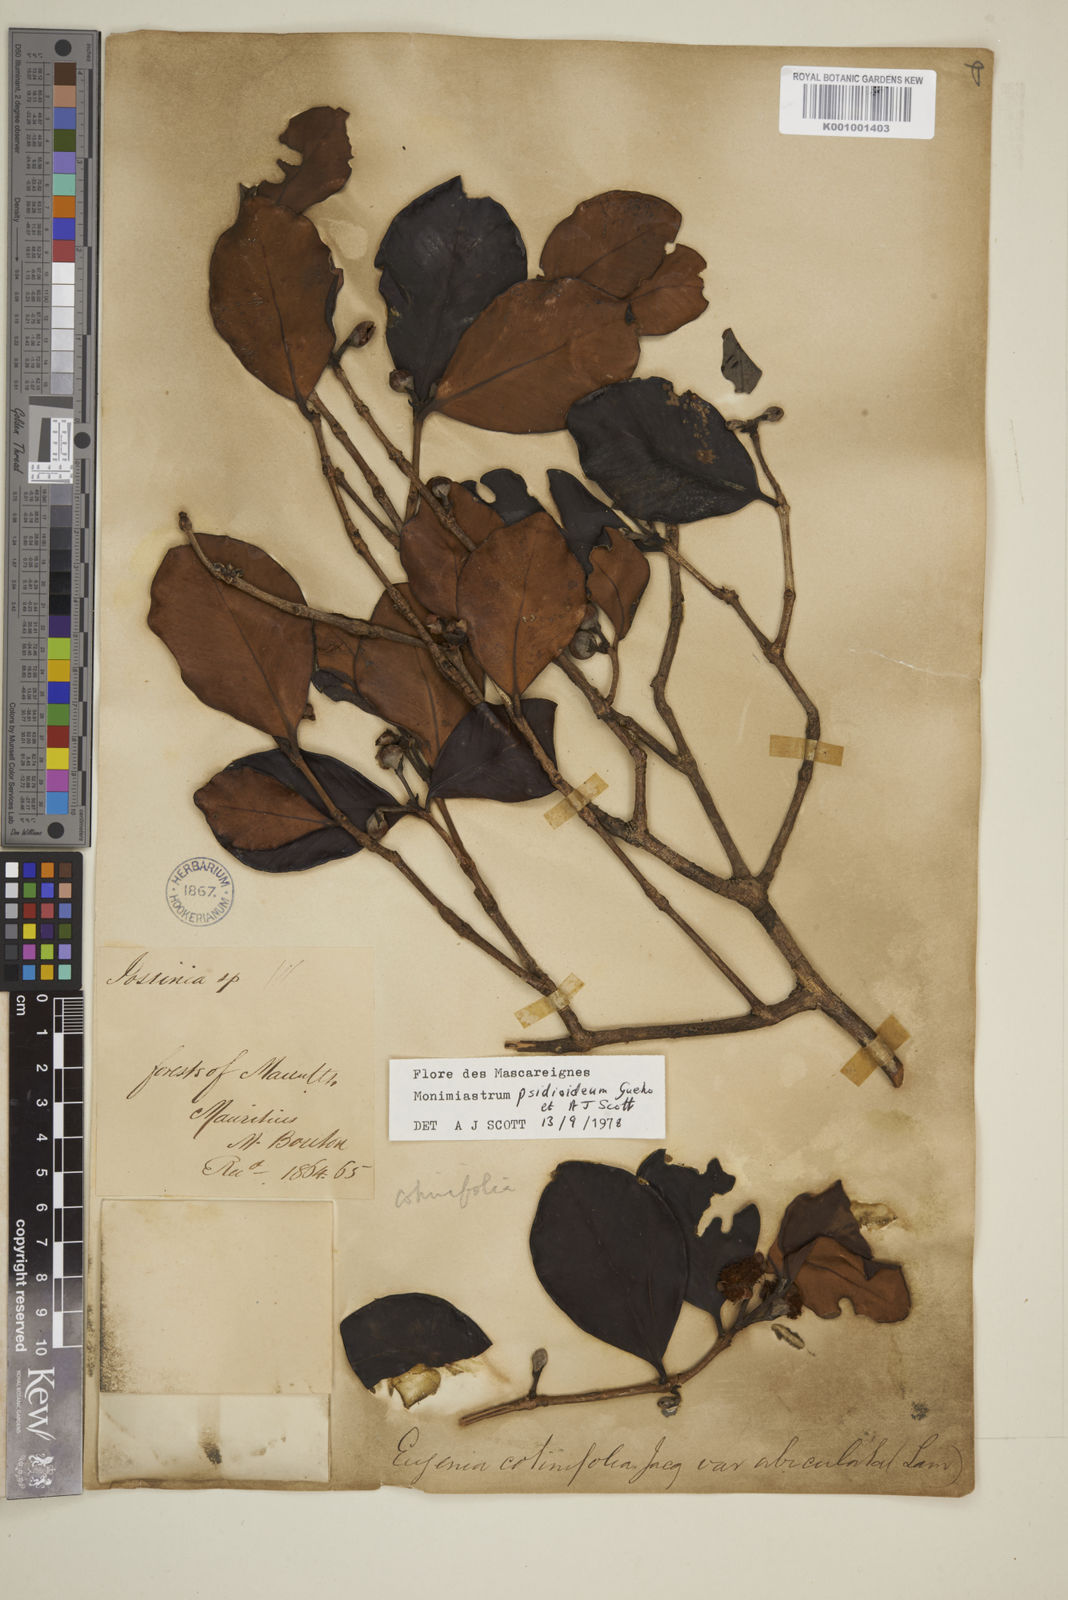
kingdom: Plantae
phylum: Tracheophyta
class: Magnoliopsida
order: Myrtales
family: Myrtaceae
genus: Eugenia
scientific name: Eugenia psidioidea
